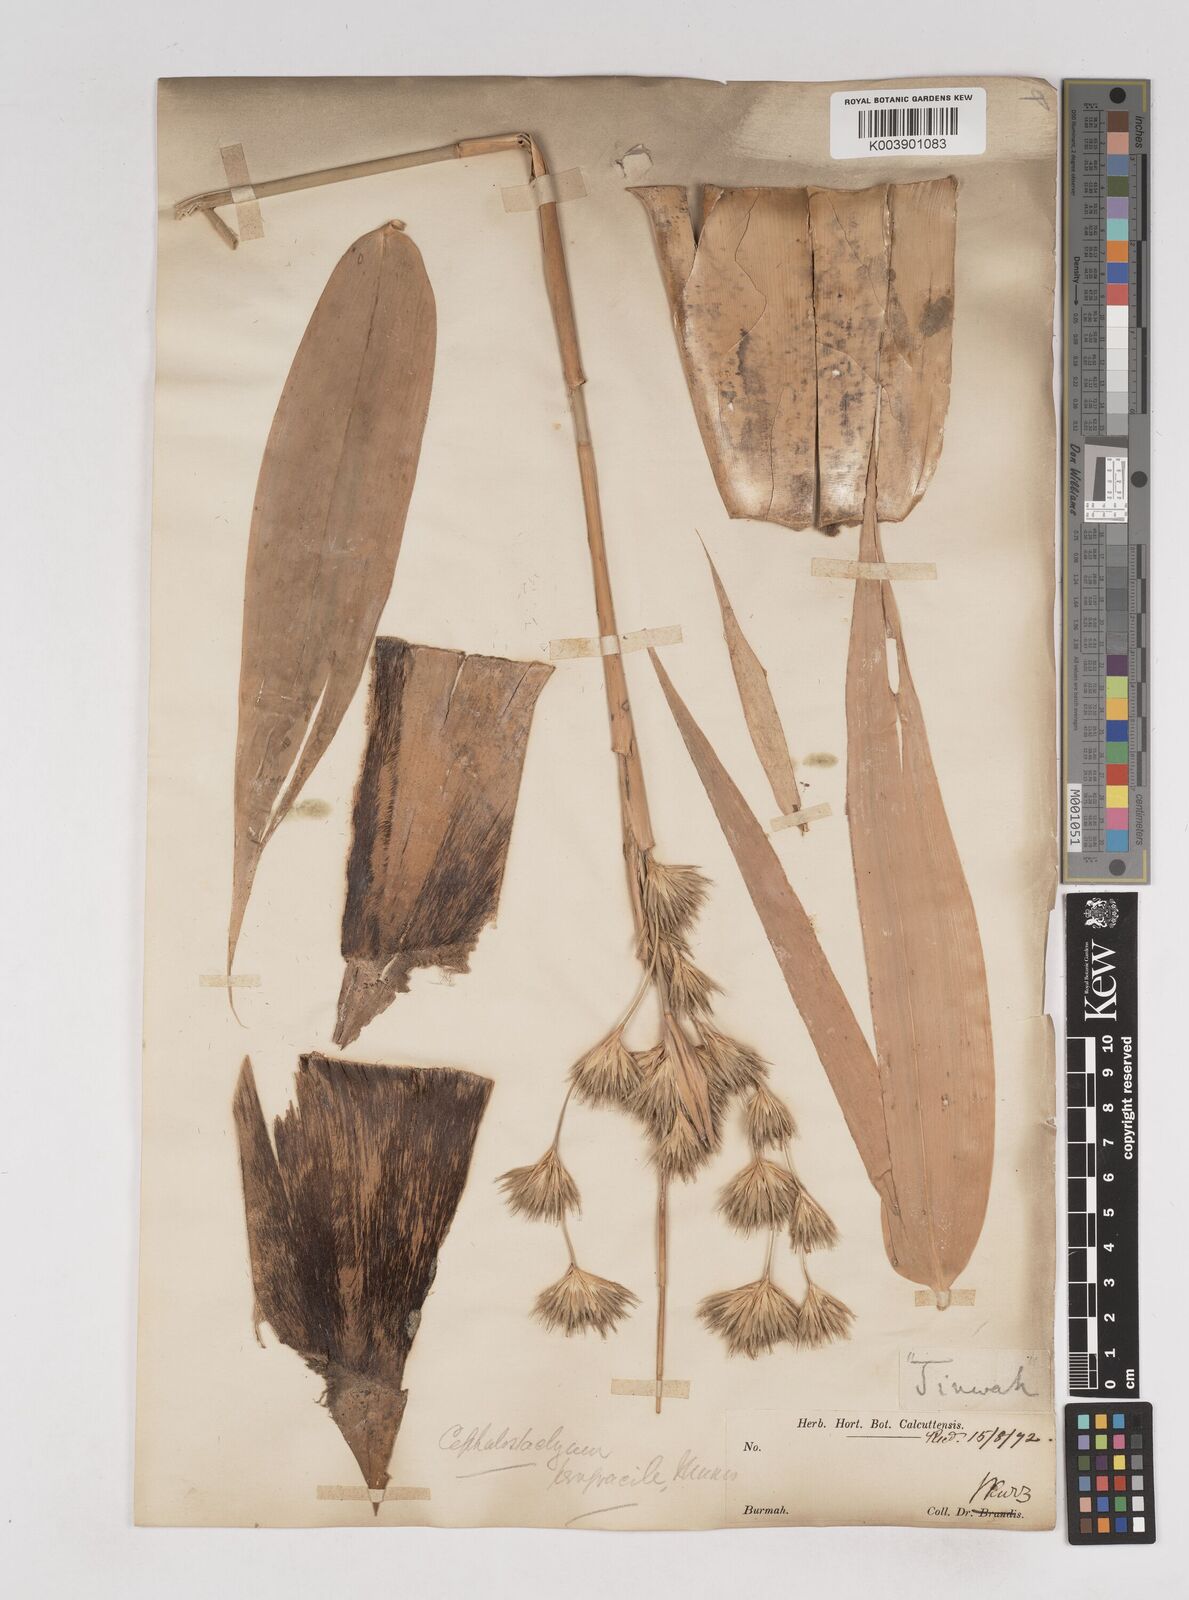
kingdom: Plantae
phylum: Tracheophyta
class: Liliopsida
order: Poales
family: Poaceae
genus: Schizostachyum
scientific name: Schizostachyum pergracile
